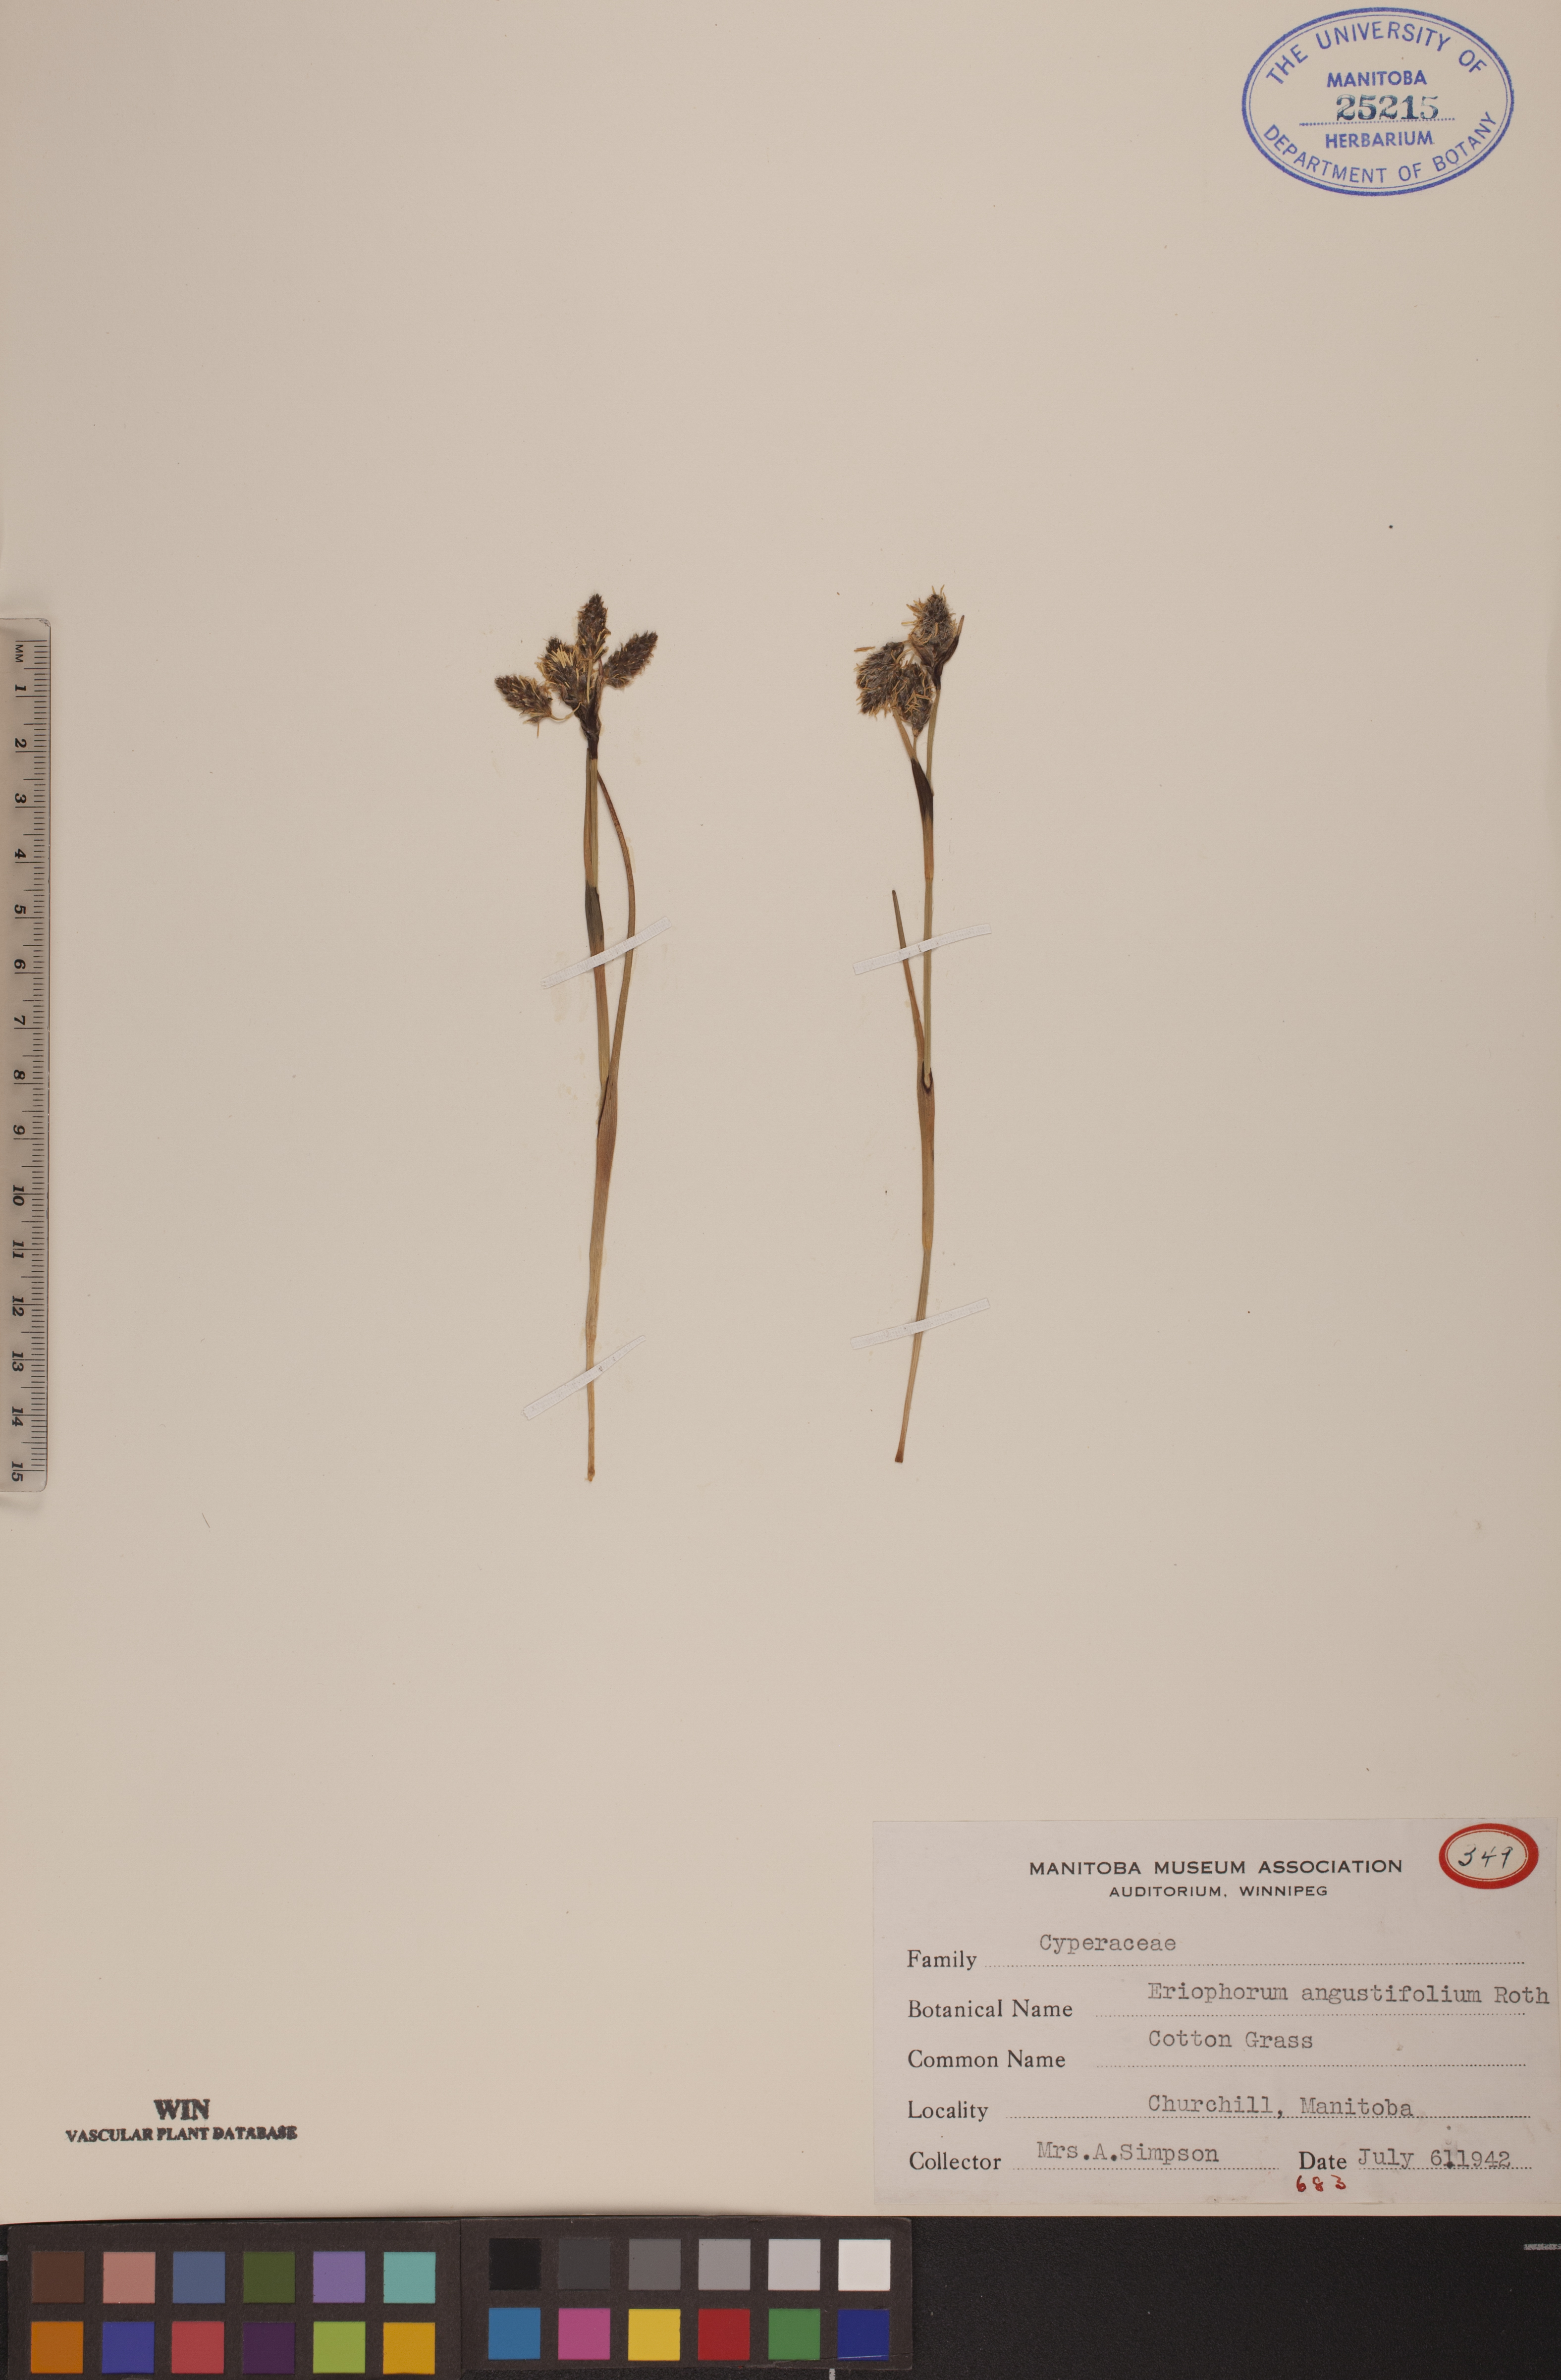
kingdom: Plantae
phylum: Tracheophyta
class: Liliopsida
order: Poales
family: Cyperaceae
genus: Eriophorum
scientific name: Eriophorum angustifolium
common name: Common cottongrass
